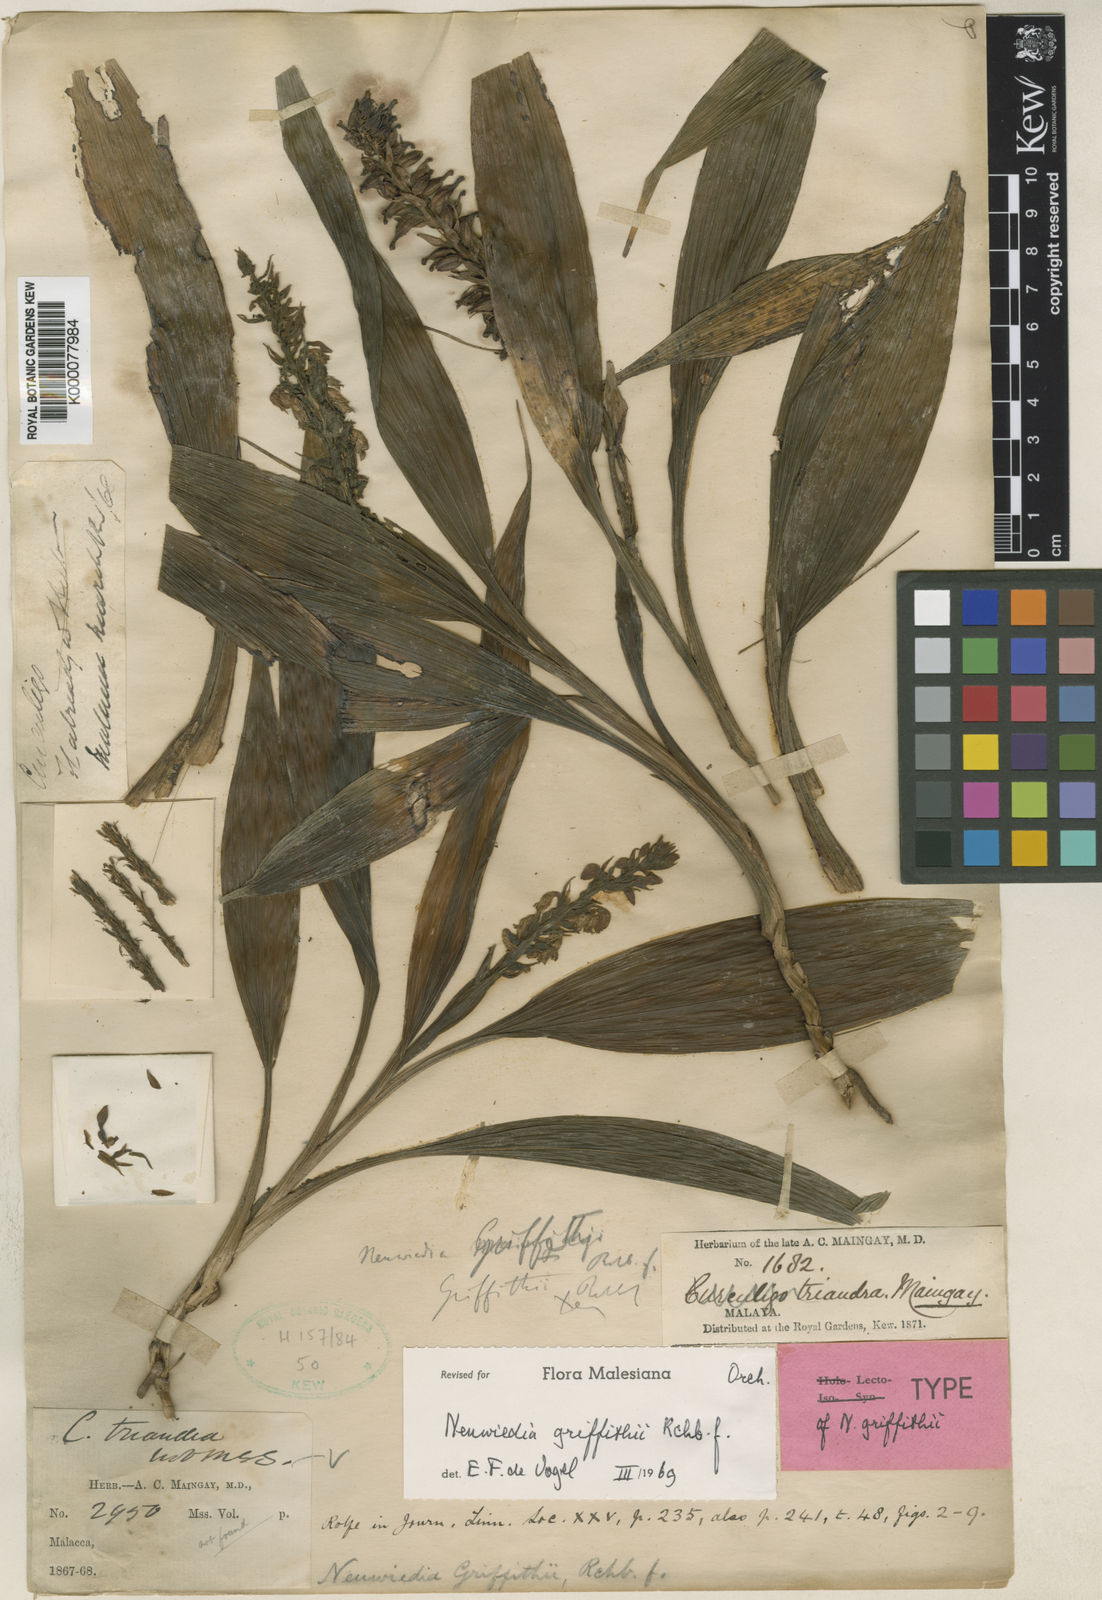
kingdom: Plantae
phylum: Tracheophyta
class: Liliopsida
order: Asparagales
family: Orchidaceae
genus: Neuwiedia
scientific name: Neuwiedia griffithii
